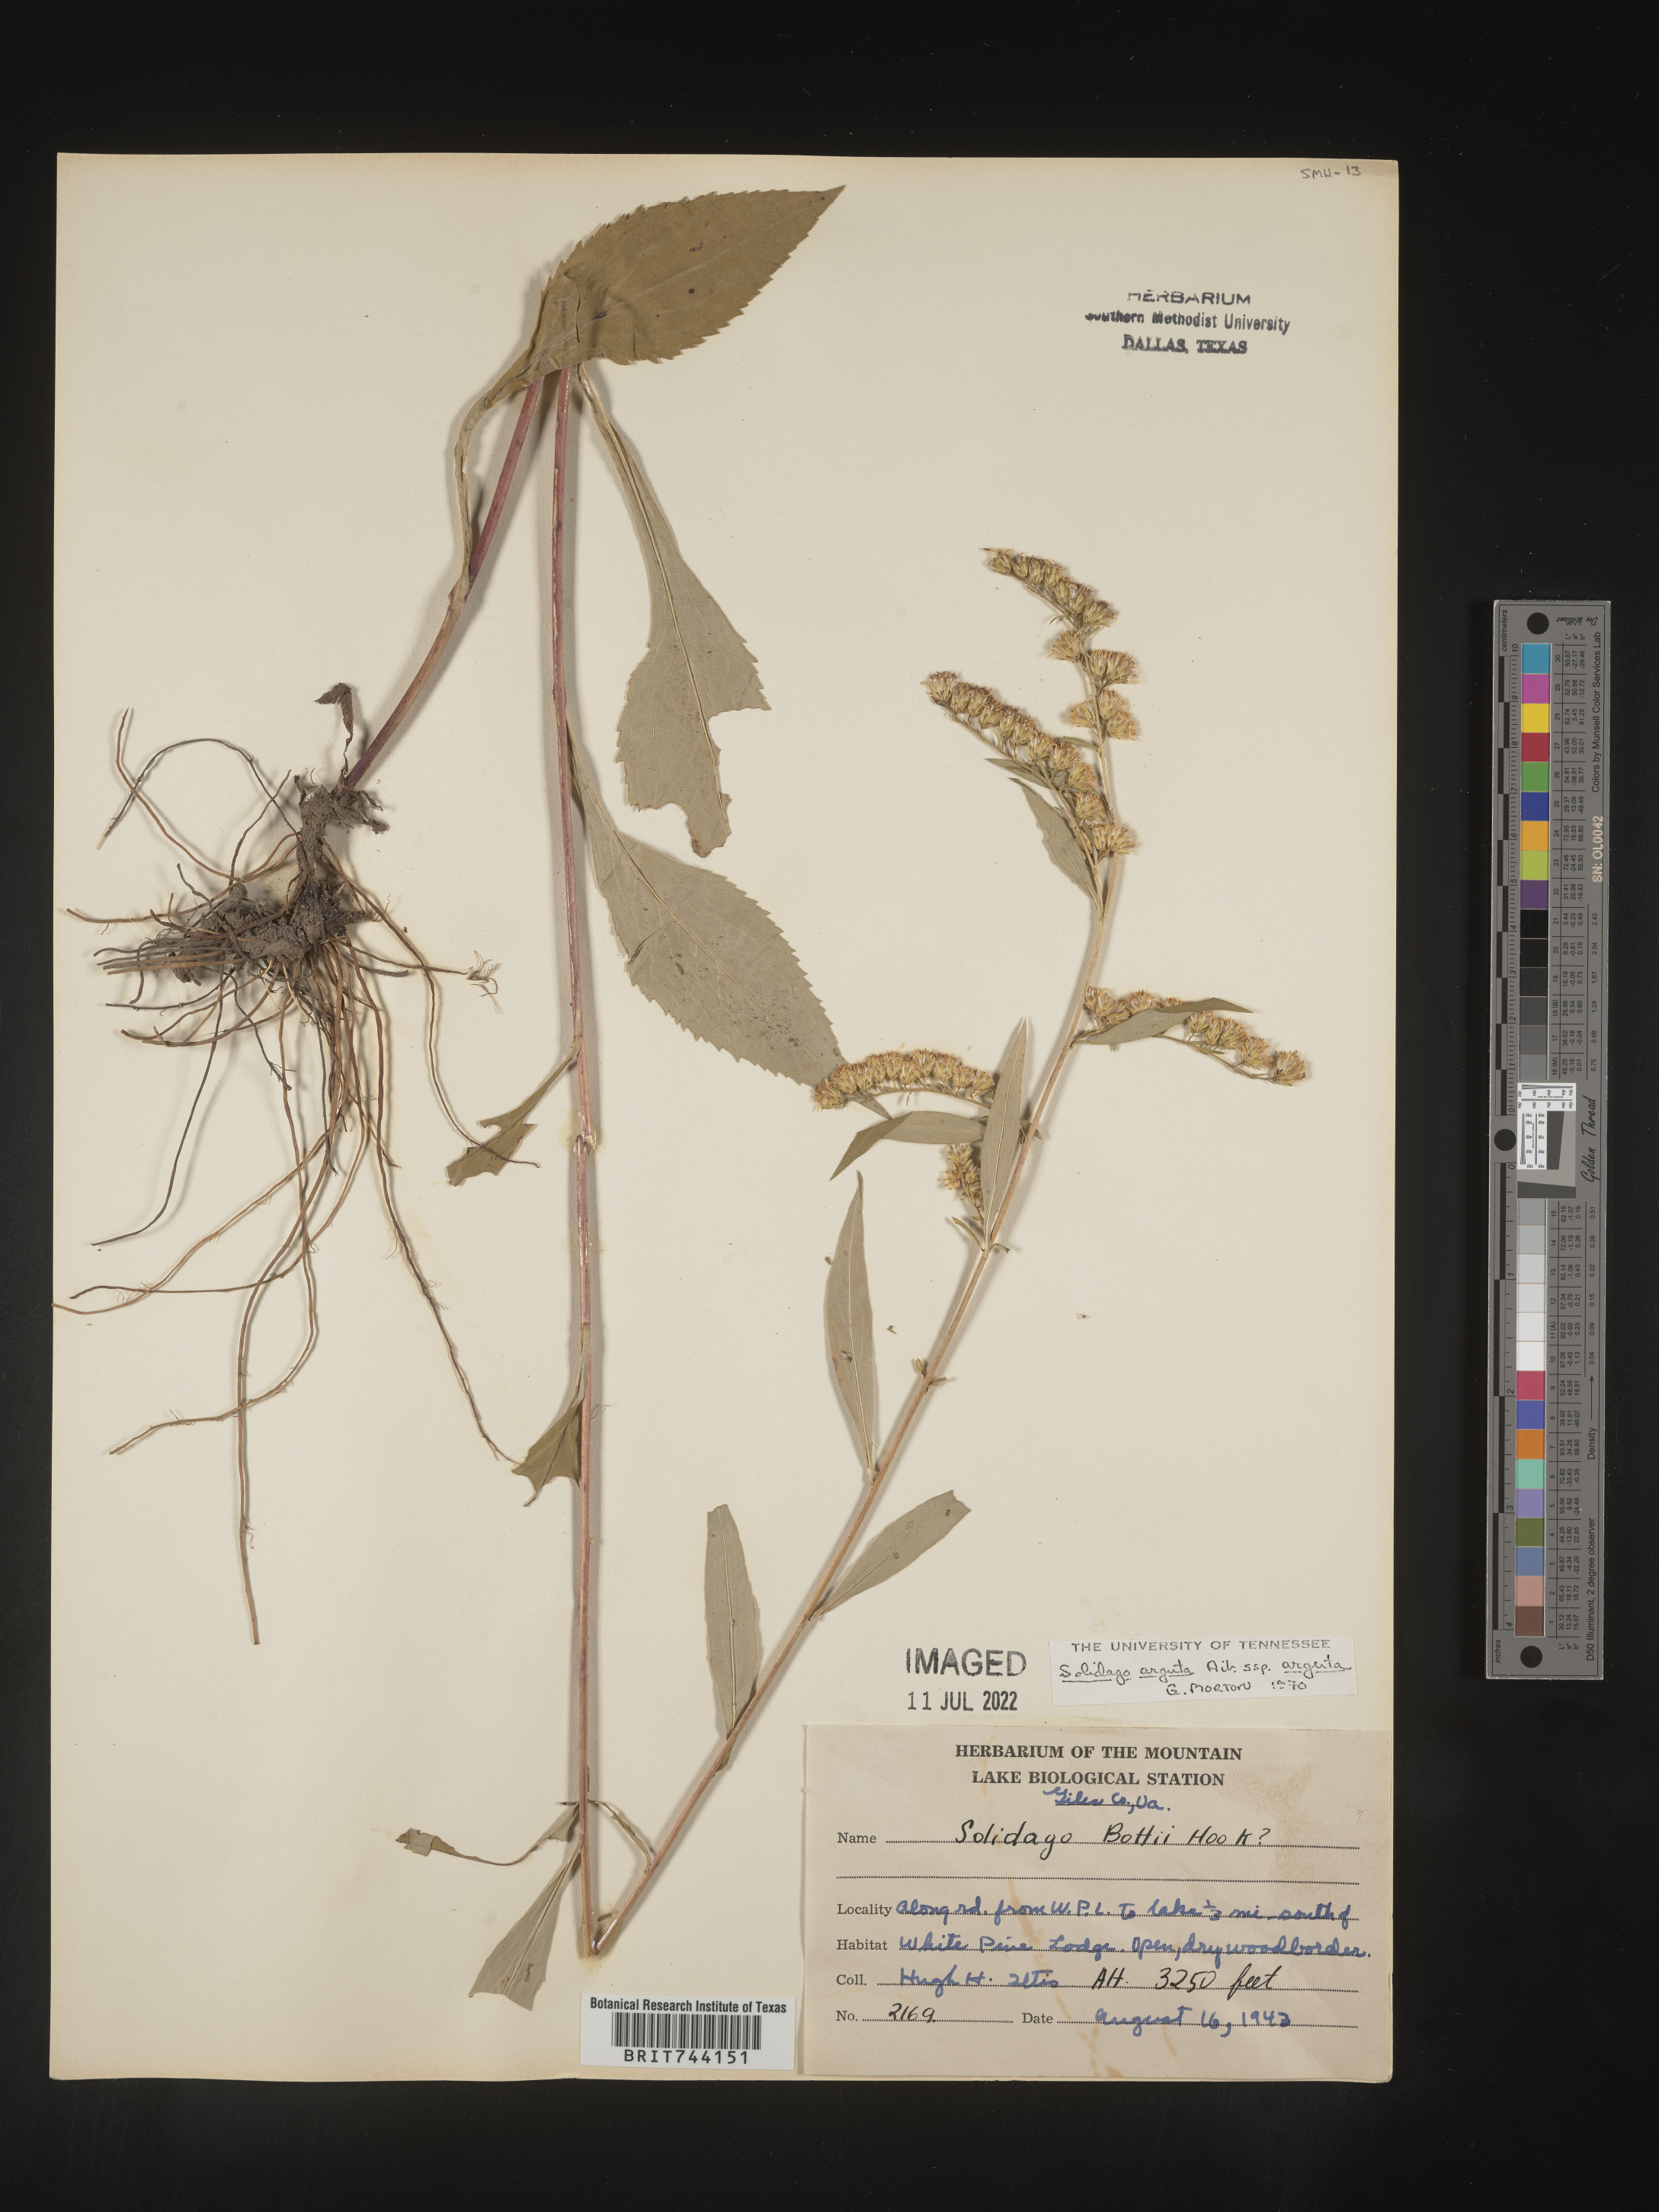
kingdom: Plantae
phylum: Tracheophyta
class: Magnoliopsida
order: Asterales
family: Asteraceae
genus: Solidago
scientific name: Solidago arguta
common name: Atlantic goldenrod
